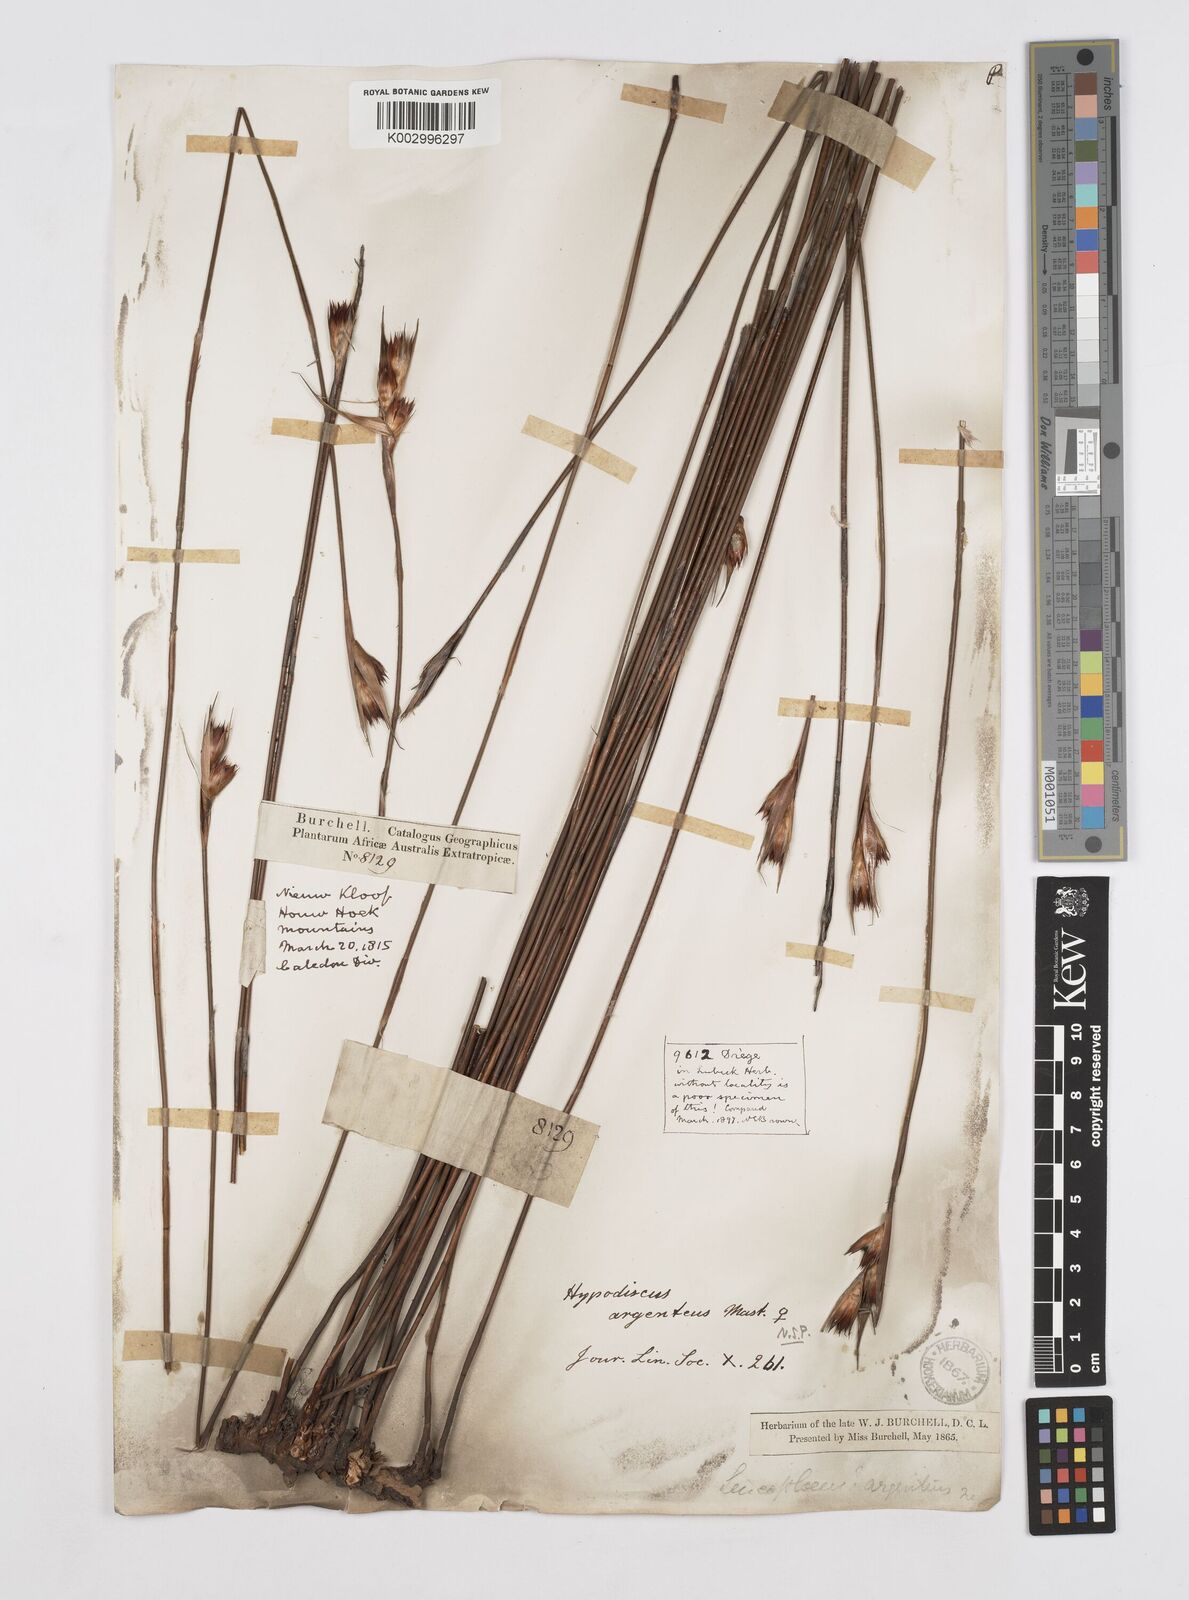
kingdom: Plantae
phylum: Tracheophyta
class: Liliopsida
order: Poales
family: Restionaceae
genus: Hypodiscus
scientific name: Hypodiscus argenteus
